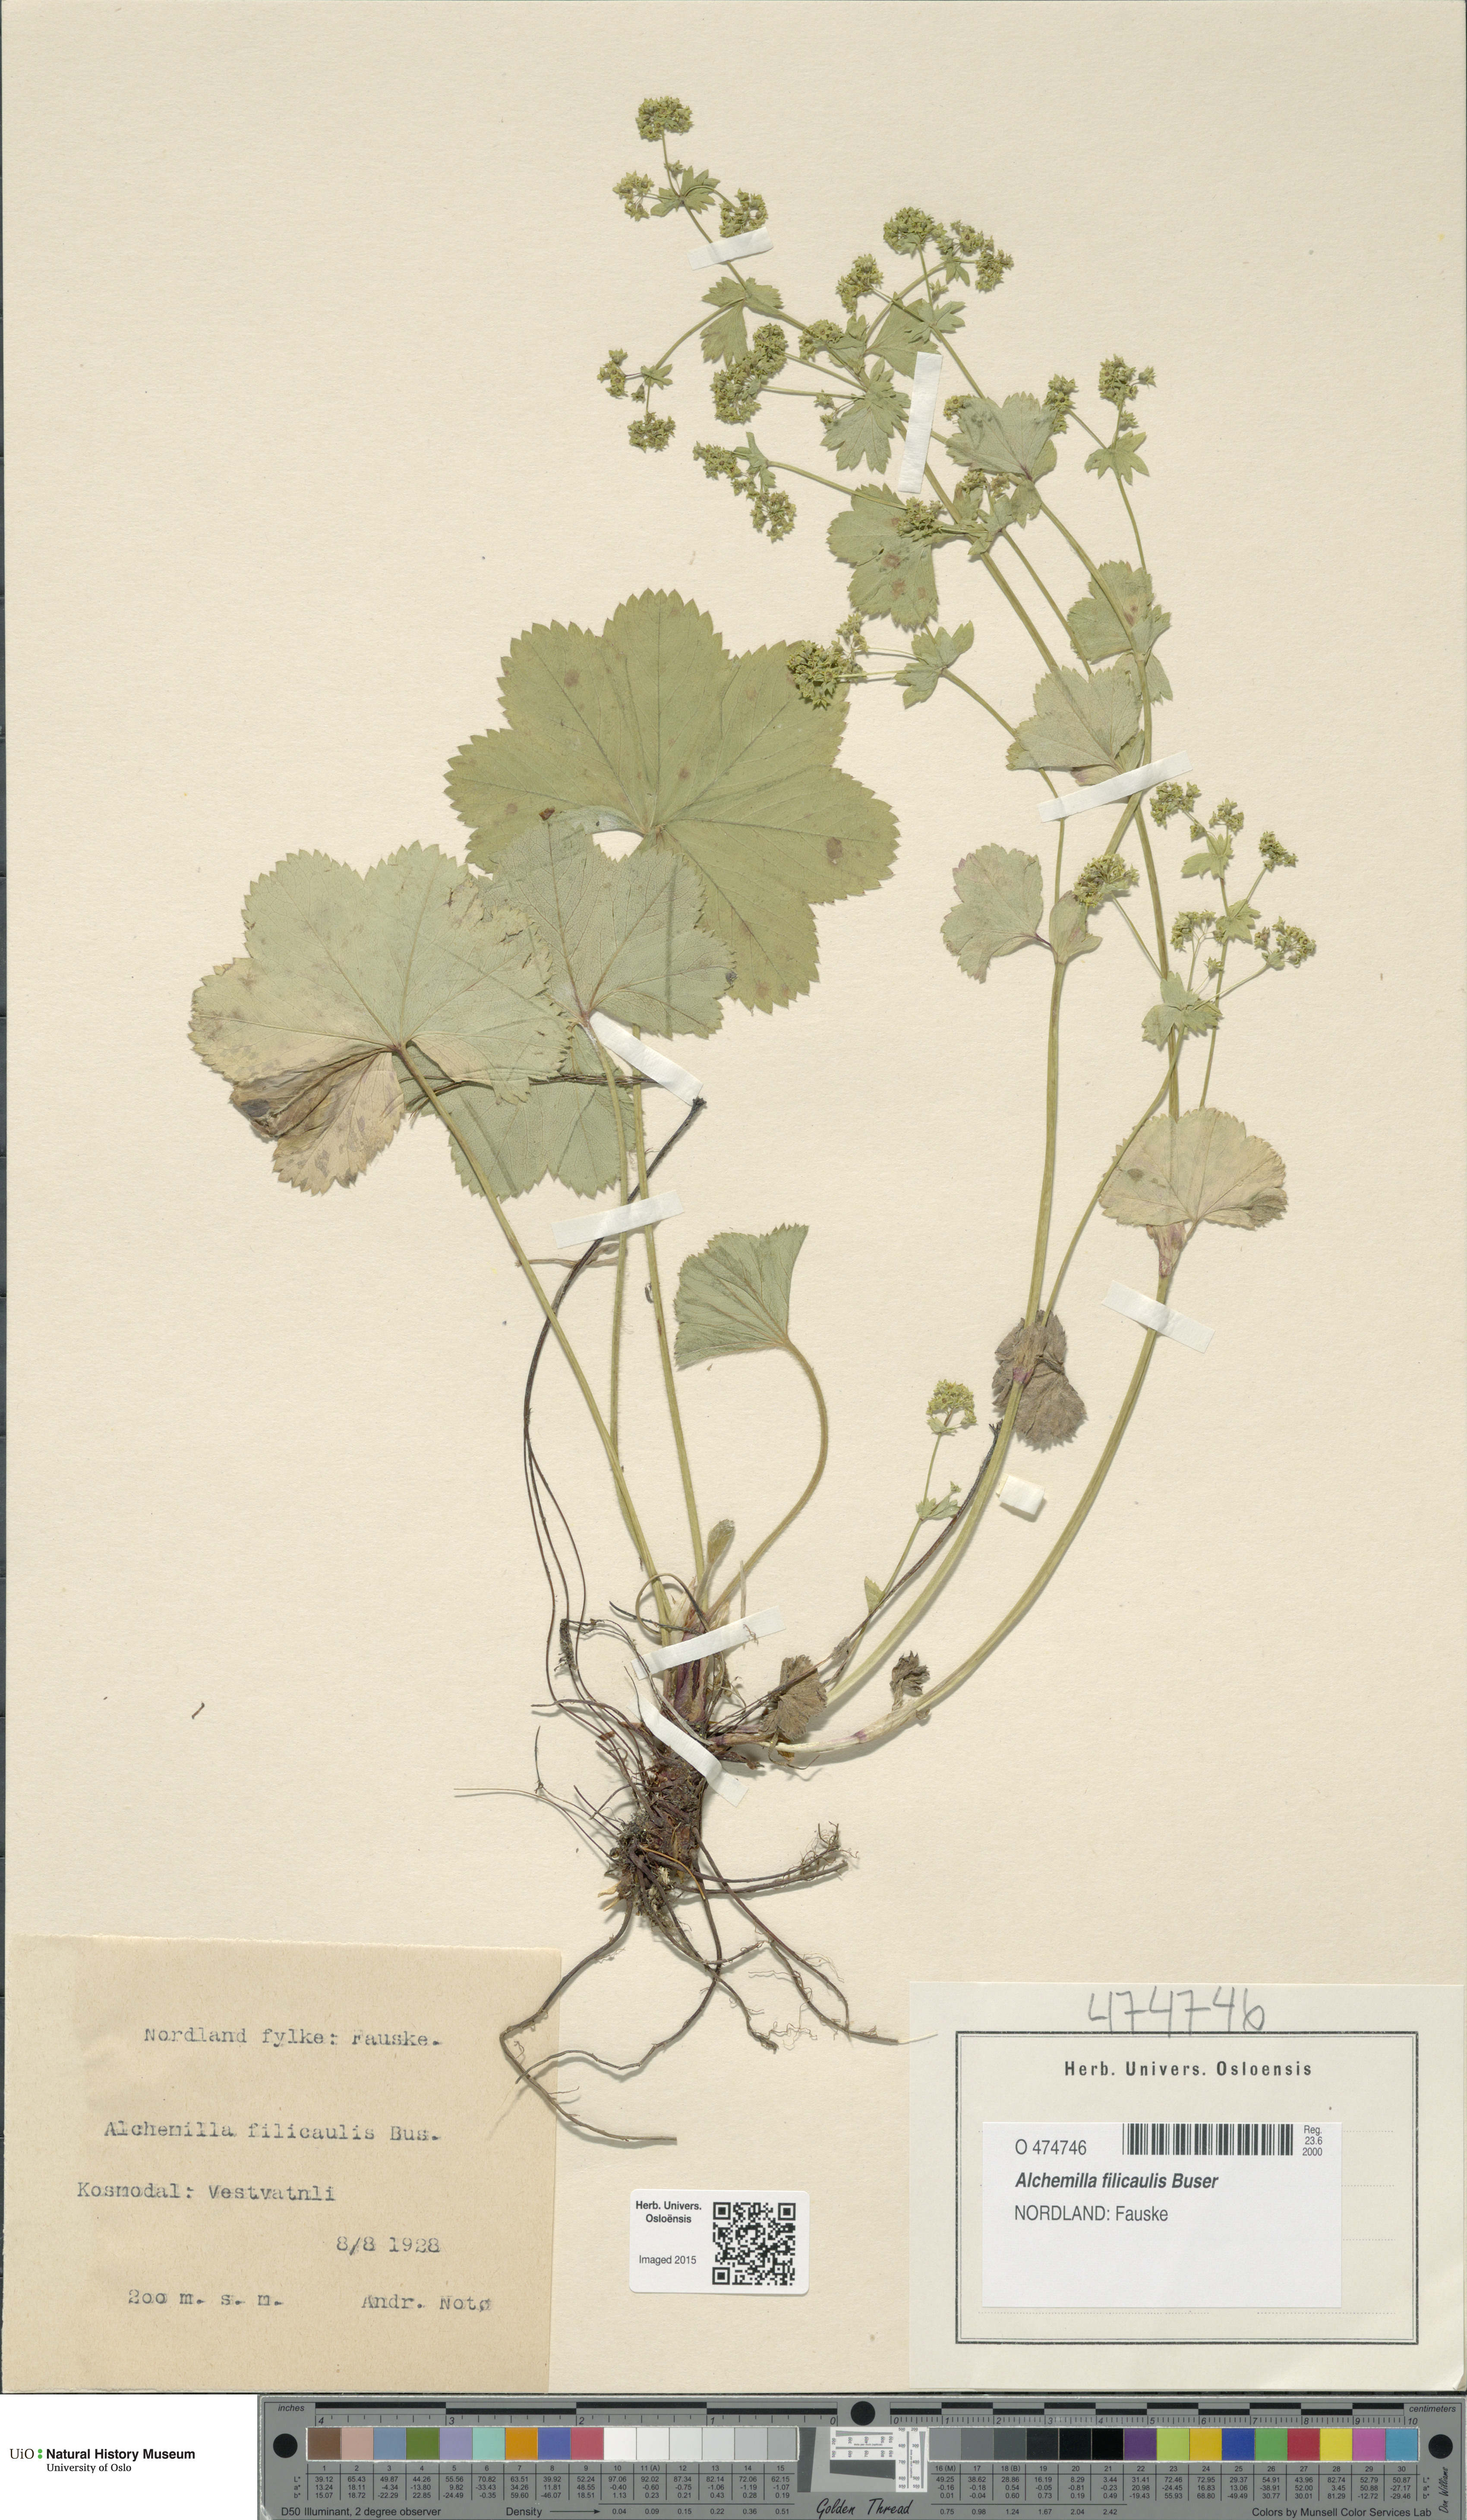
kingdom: Plantae
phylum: Tracheophyta
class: Magnoliopsida
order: Rosales
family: Rosaceae
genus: Alchemilla
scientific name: Alchemilla filicaulis
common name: Hairy lady's-mantle
